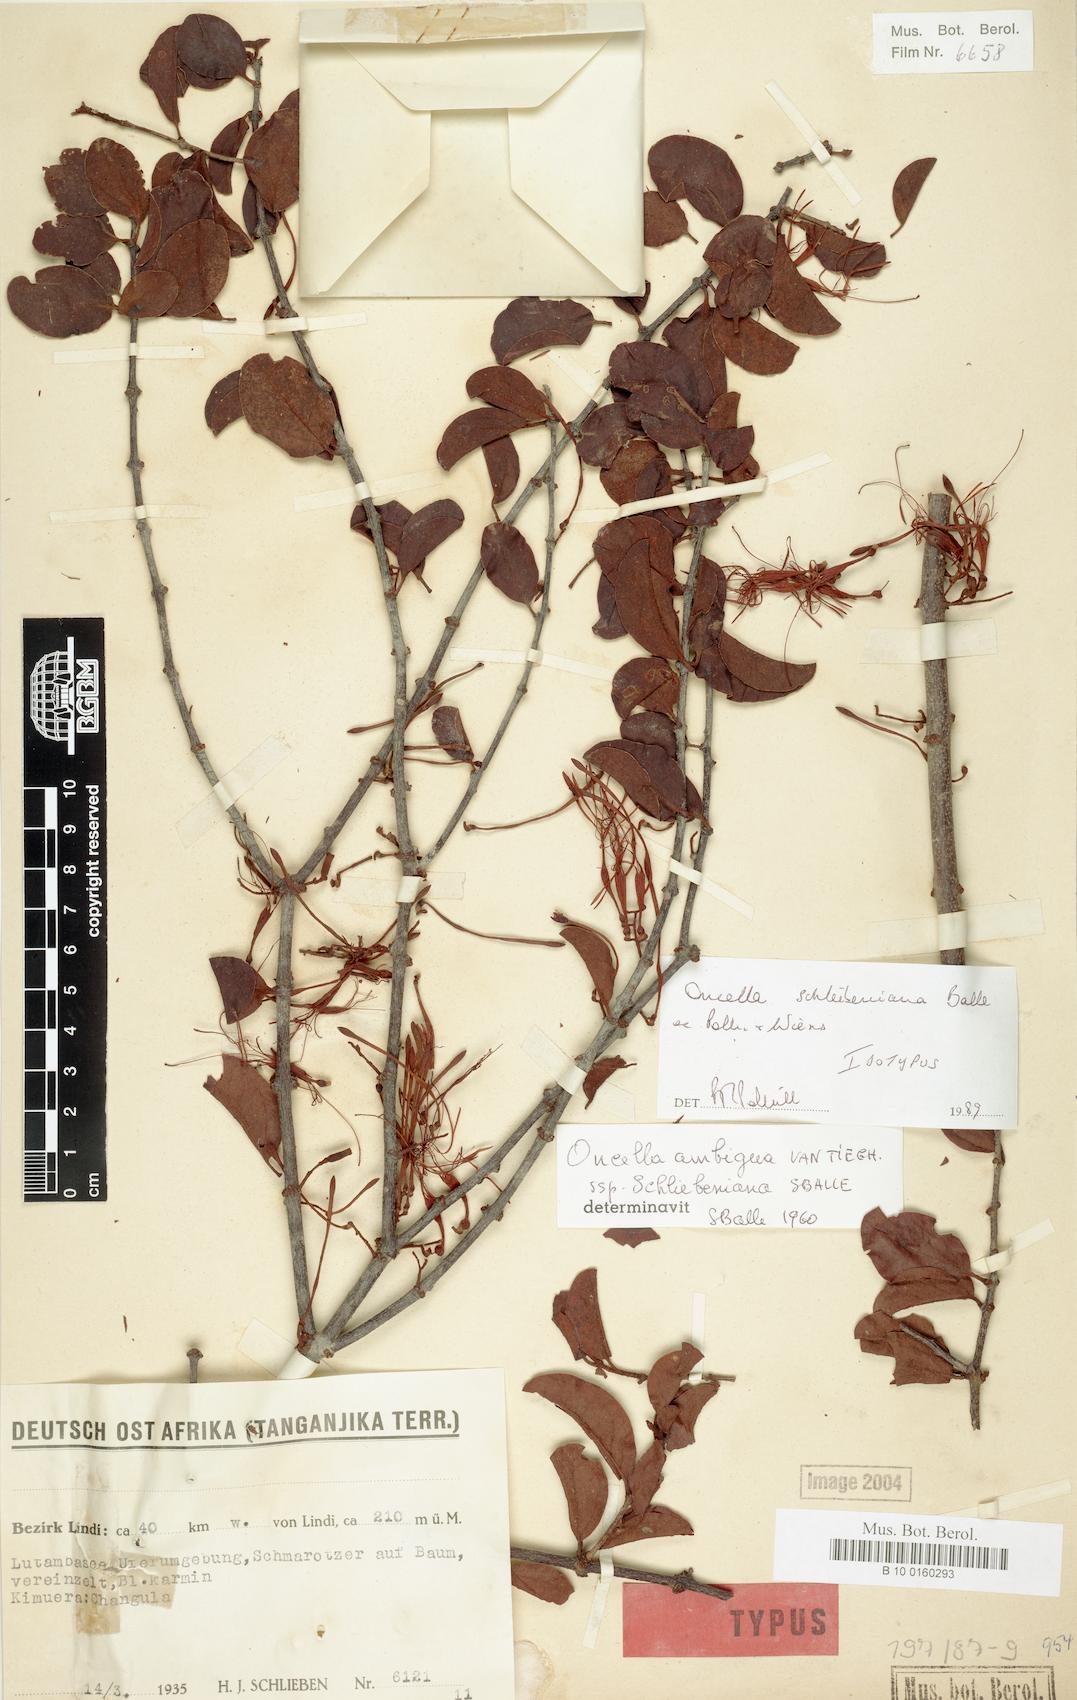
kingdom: Plantae
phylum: Tracheophyta
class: Magnoliopsida
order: Santalales
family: Loranthaceae
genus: Oncella
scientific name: Oncella schliebeniana
